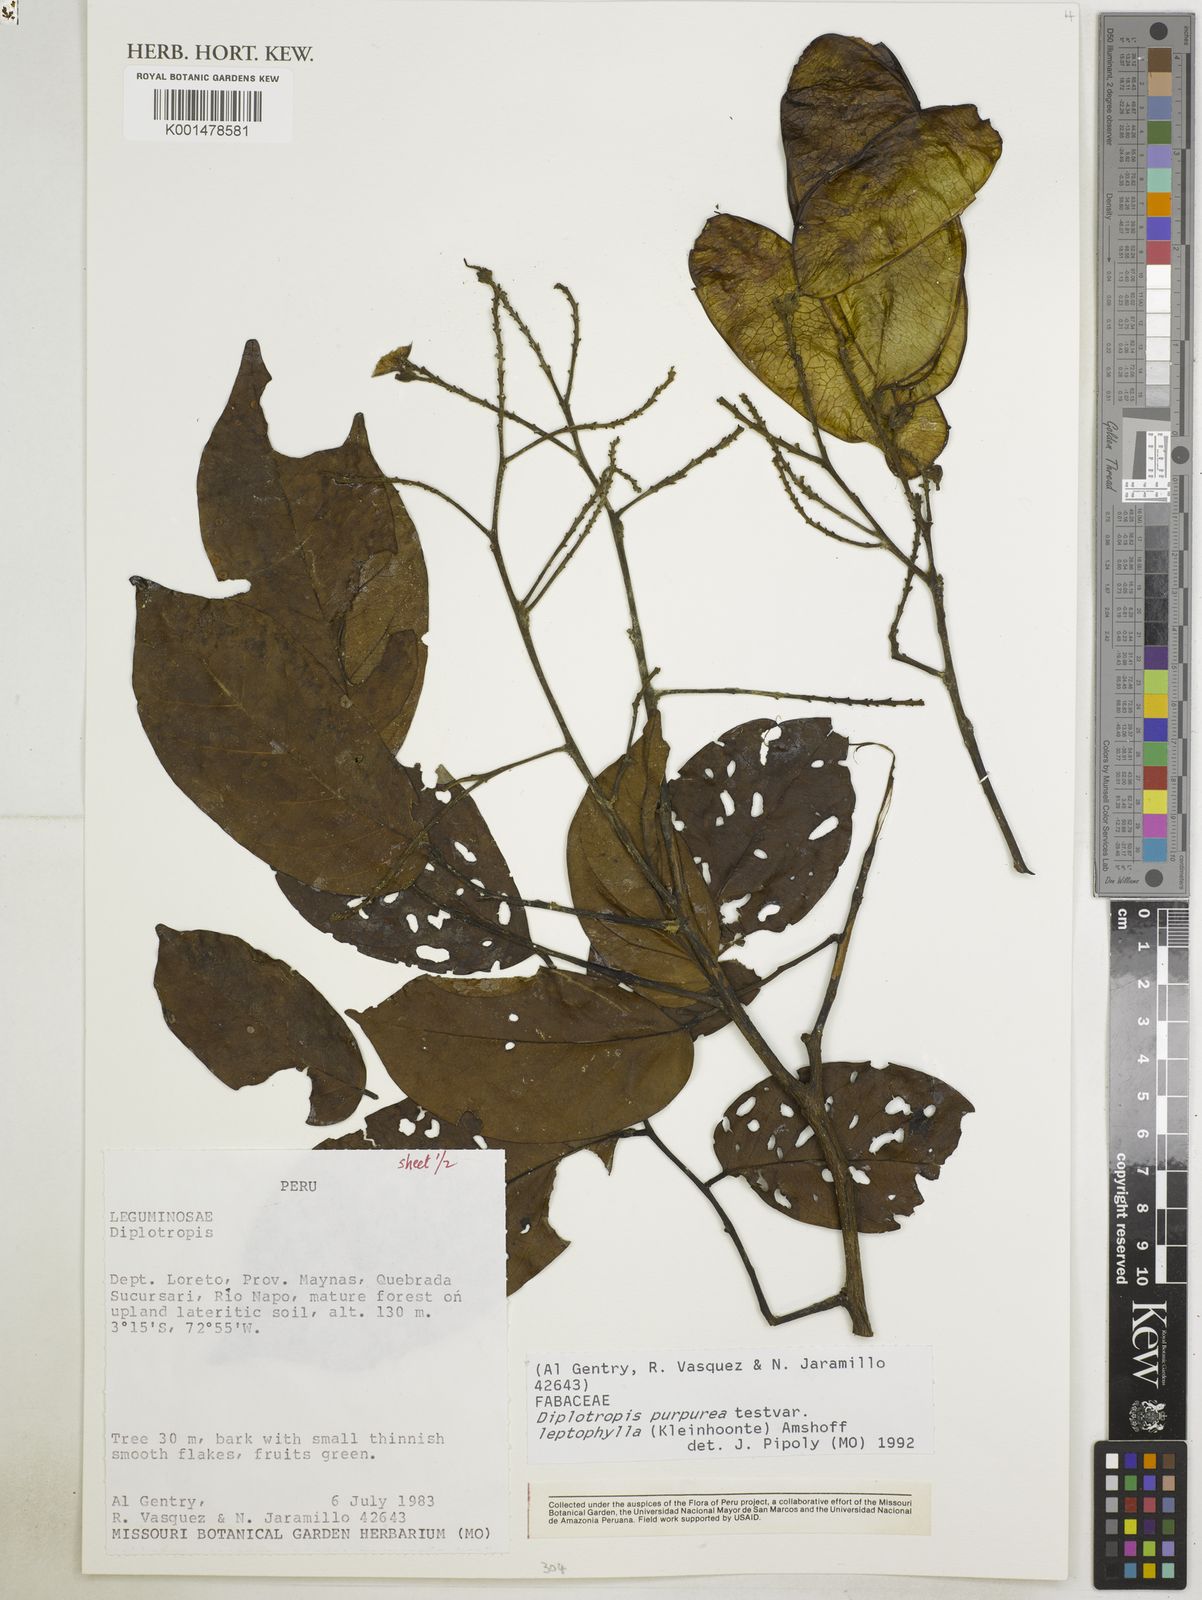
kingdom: Plantae
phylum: Tracheophyta
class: Magnoliopsida
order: Fabales
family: Fabaceae
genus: Diplotropis
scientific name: Diplotropis purpurea
